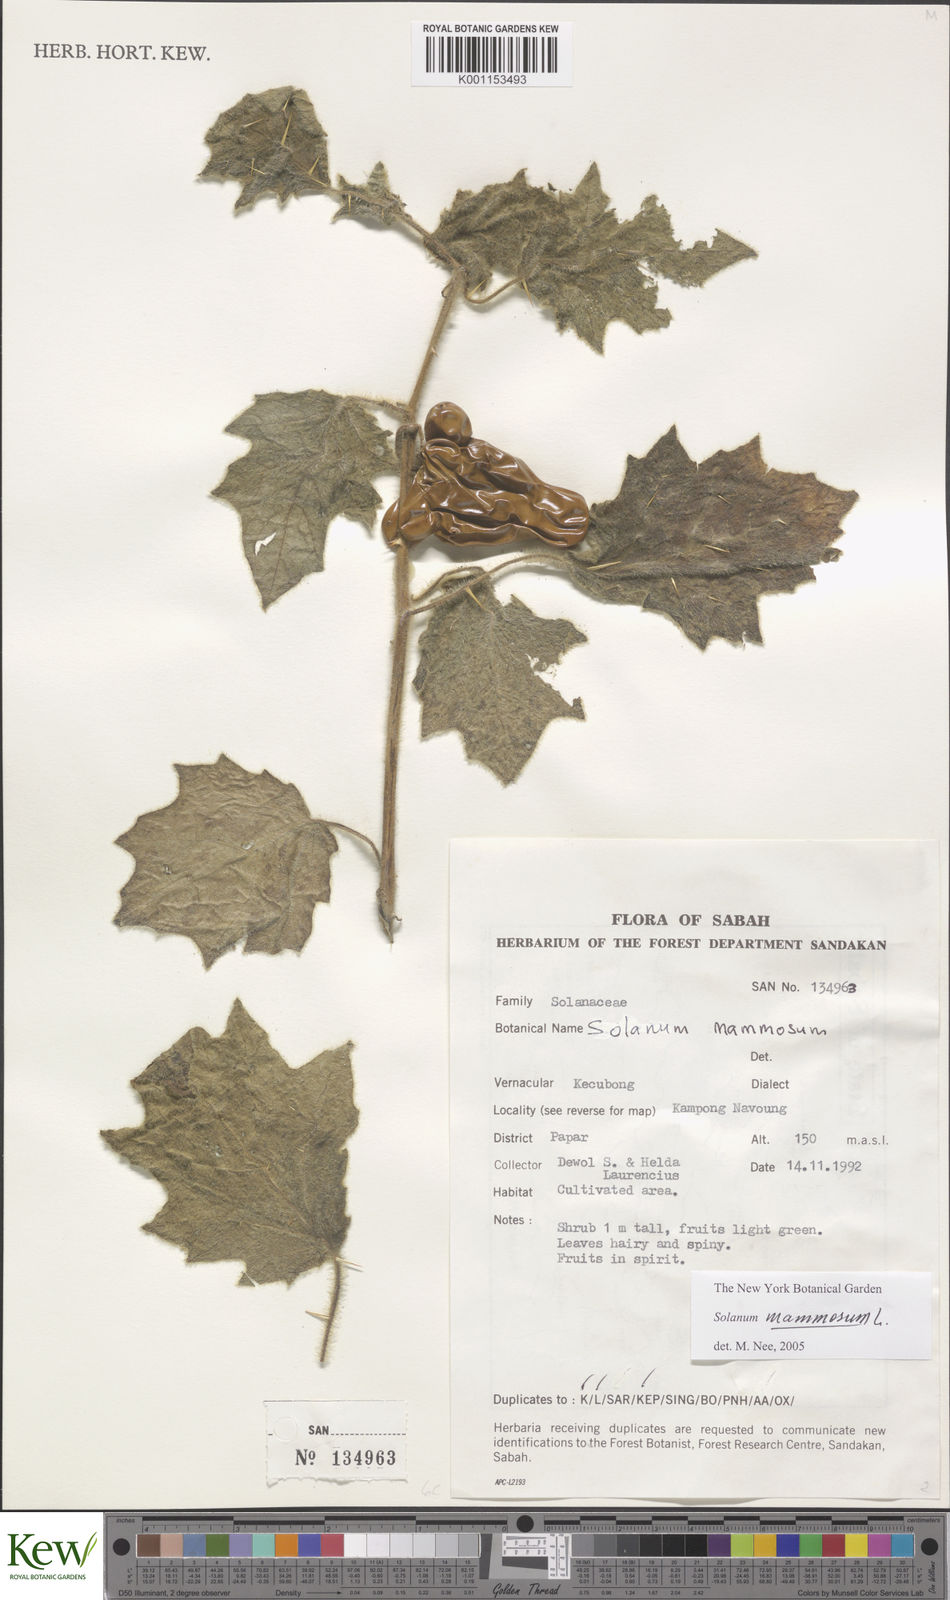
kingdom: Plantae
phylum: Tracheophyta
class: Magnoliopsida
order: Solanales
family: Solanaceae
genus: Solanum
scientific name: Solanum mammosum
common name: Nipple fruit
